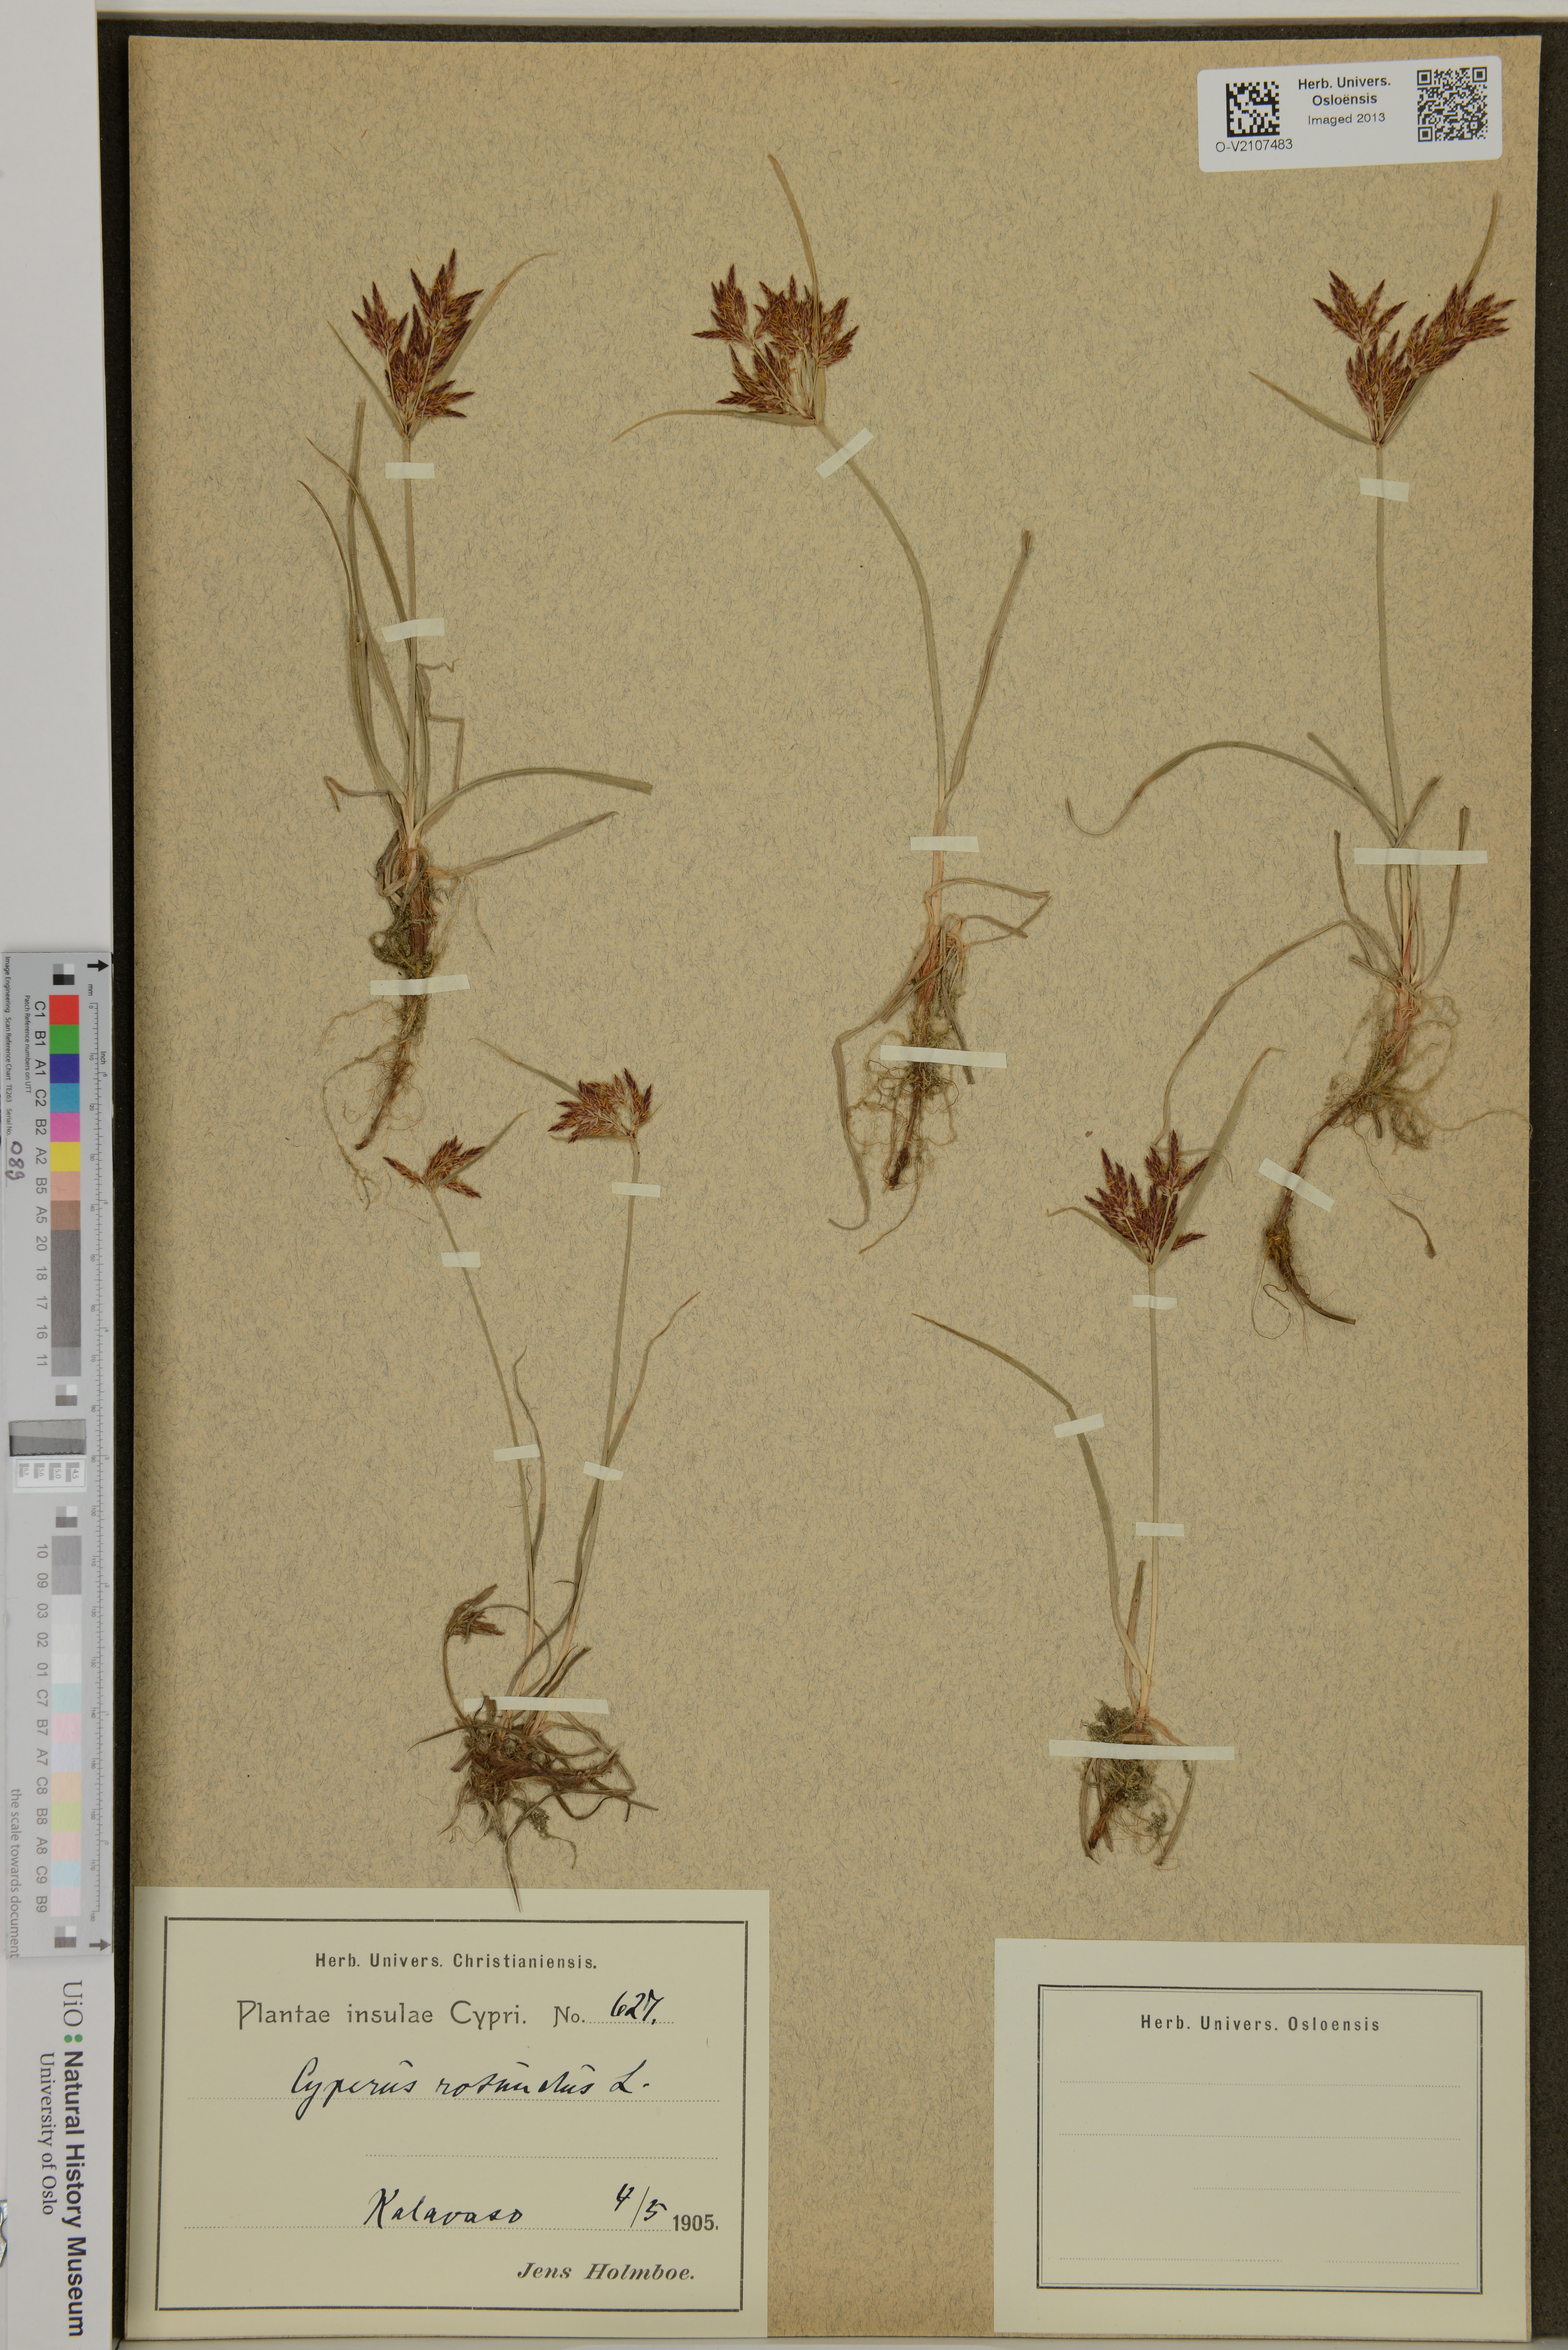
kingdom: Plantae
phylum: Tracheophyta
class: Liliopsida
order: Poales
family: Cyperaceae
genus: Cyperus
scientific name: Cyperus rotundus
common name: Nutgrass
